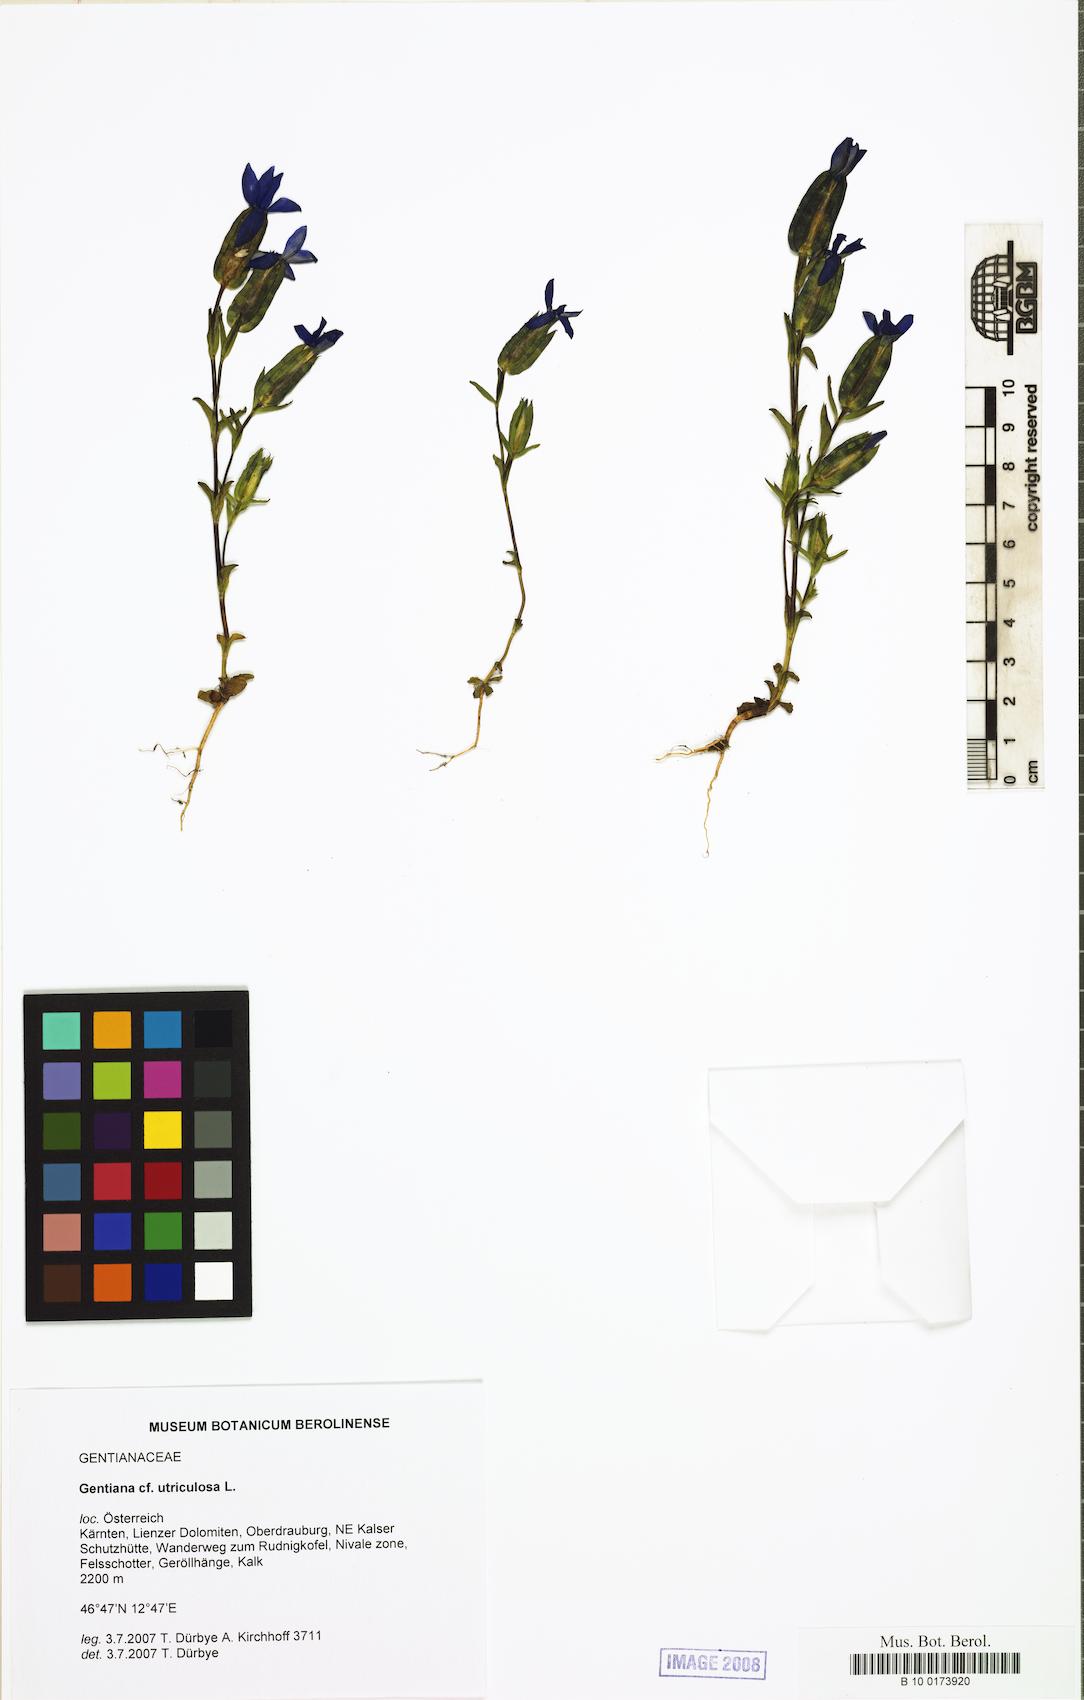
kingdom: Plantae
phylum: Tracheophyta
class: Magnoliopsida
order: Gentianales
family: Gentianaceae
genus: Gentiana
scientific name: Gentiana utriculosa
